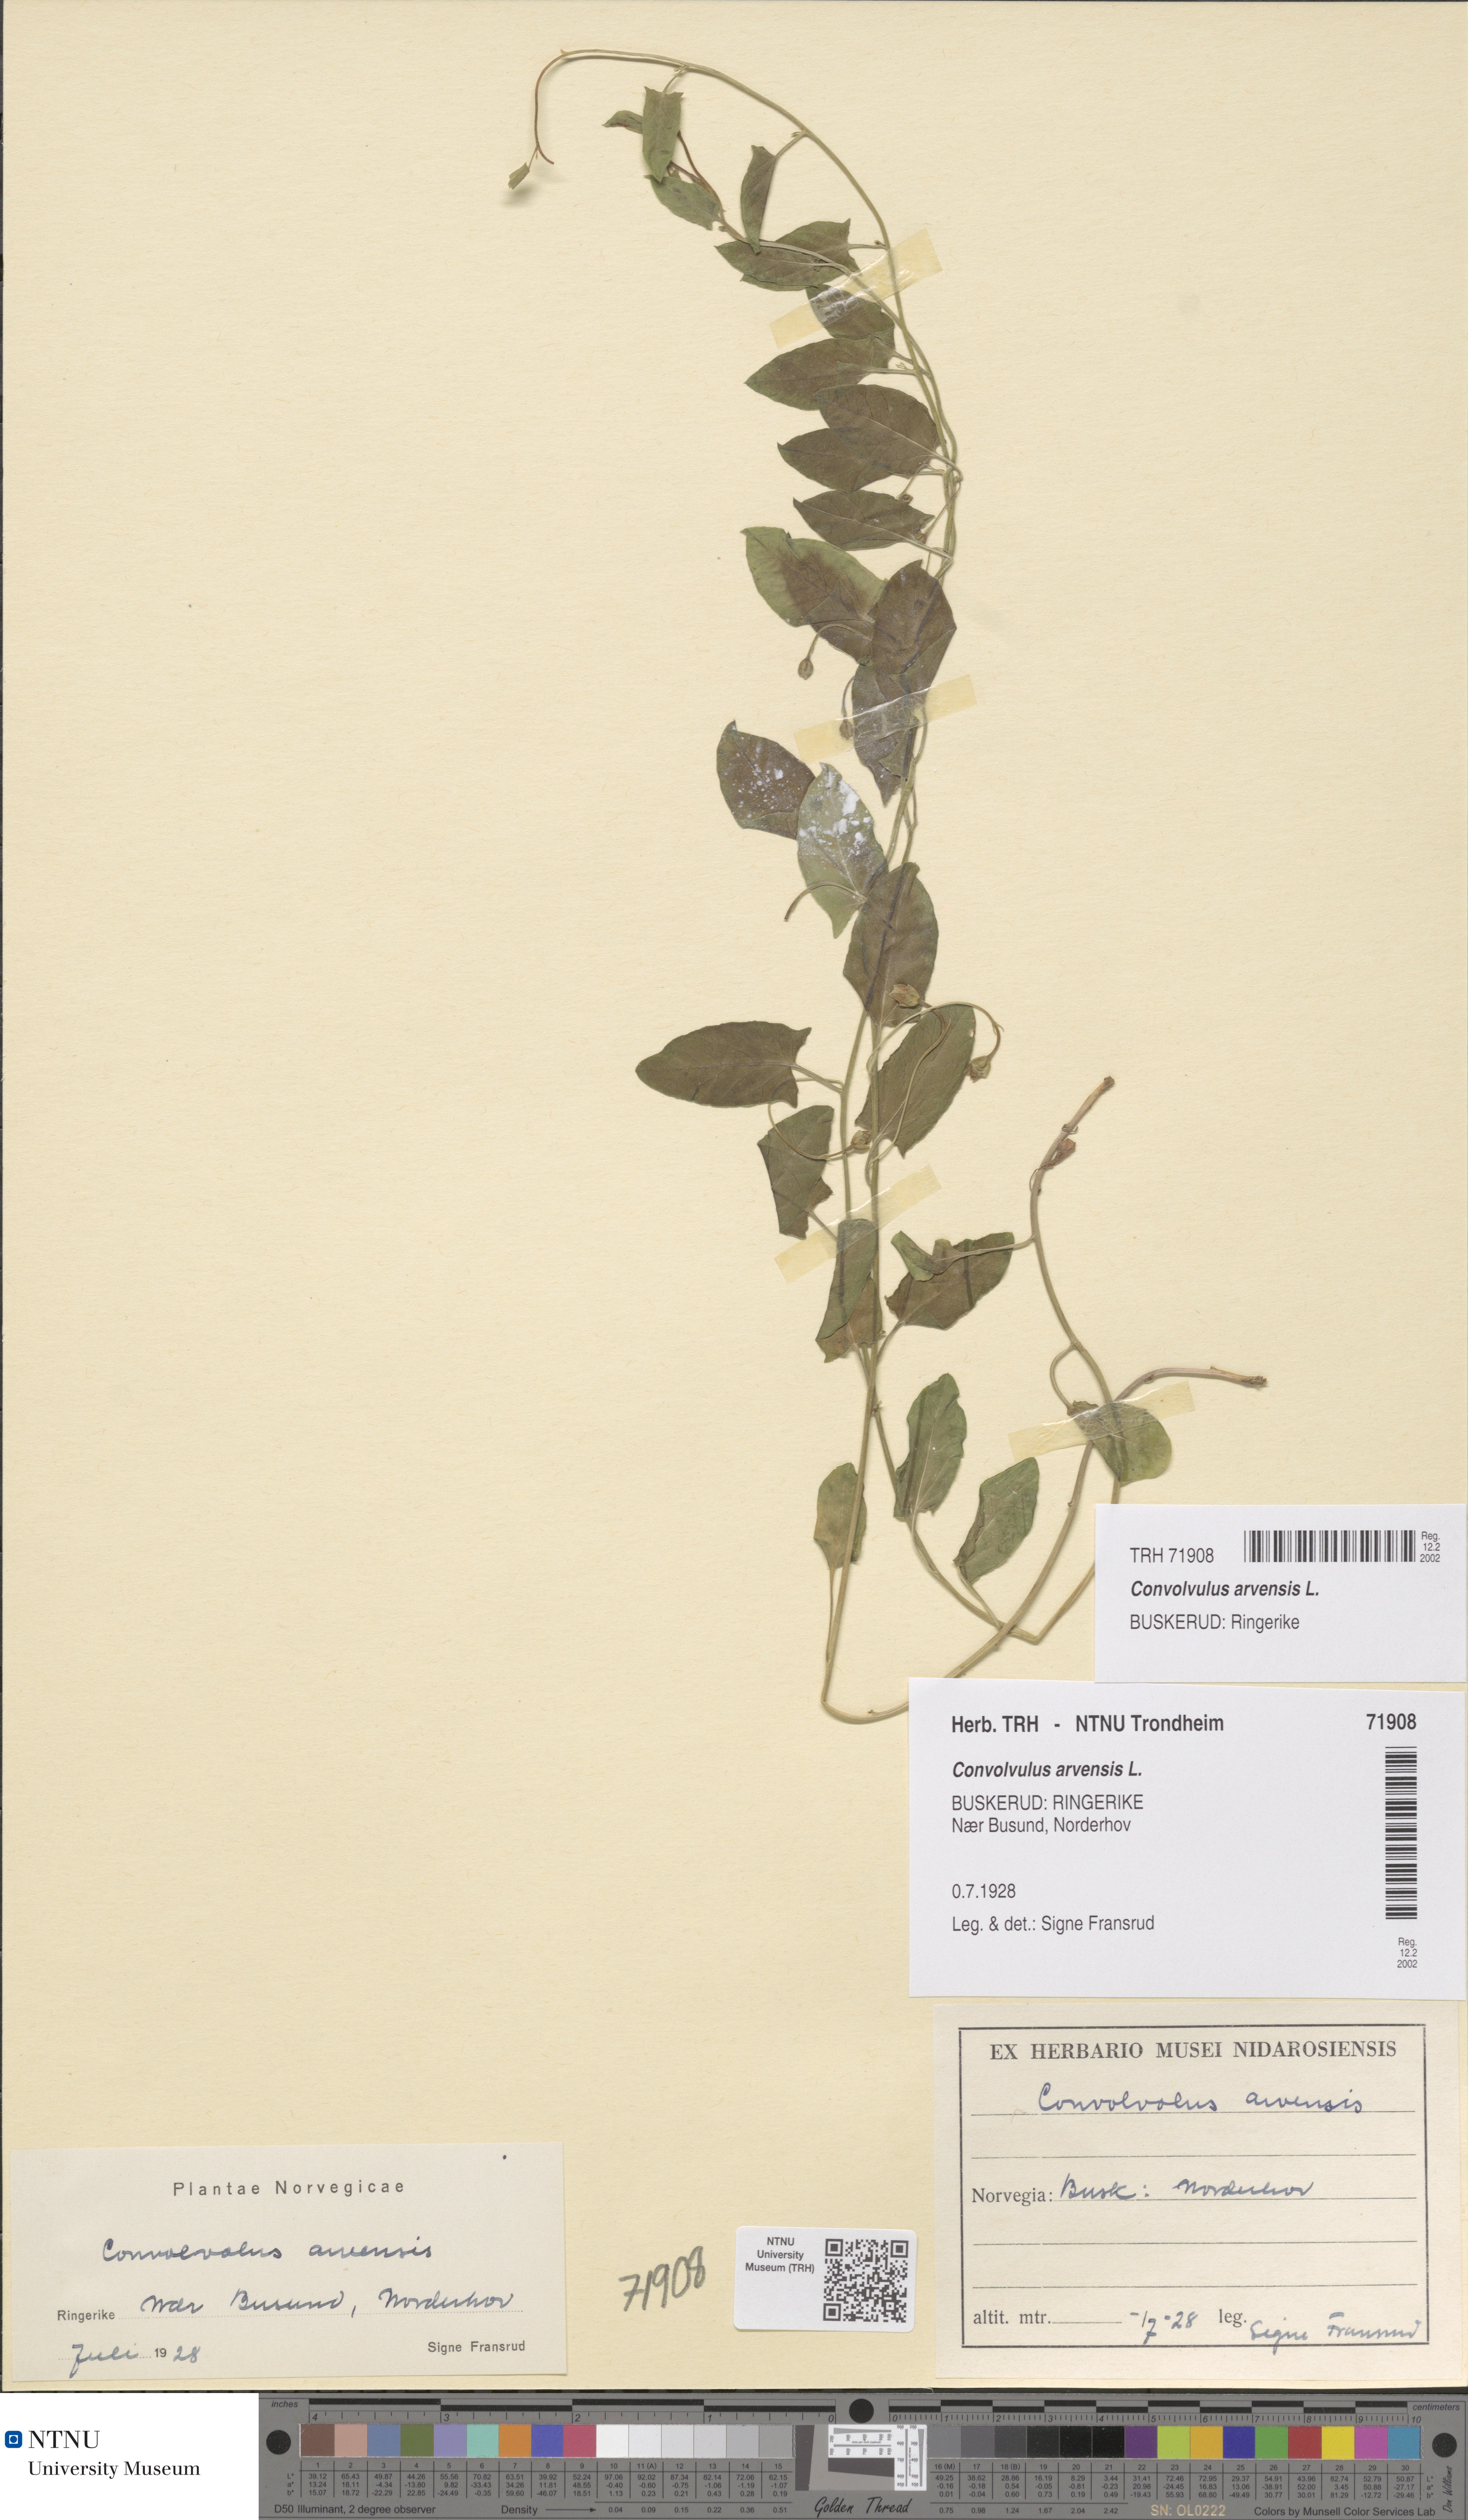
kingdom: Plantae
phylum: Tracheophyta
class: Magnoliopsida
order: Solanales
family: Convolvulaceae
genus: Convolvulus
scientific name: Convolvulus arvensis
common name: Field bindweed
